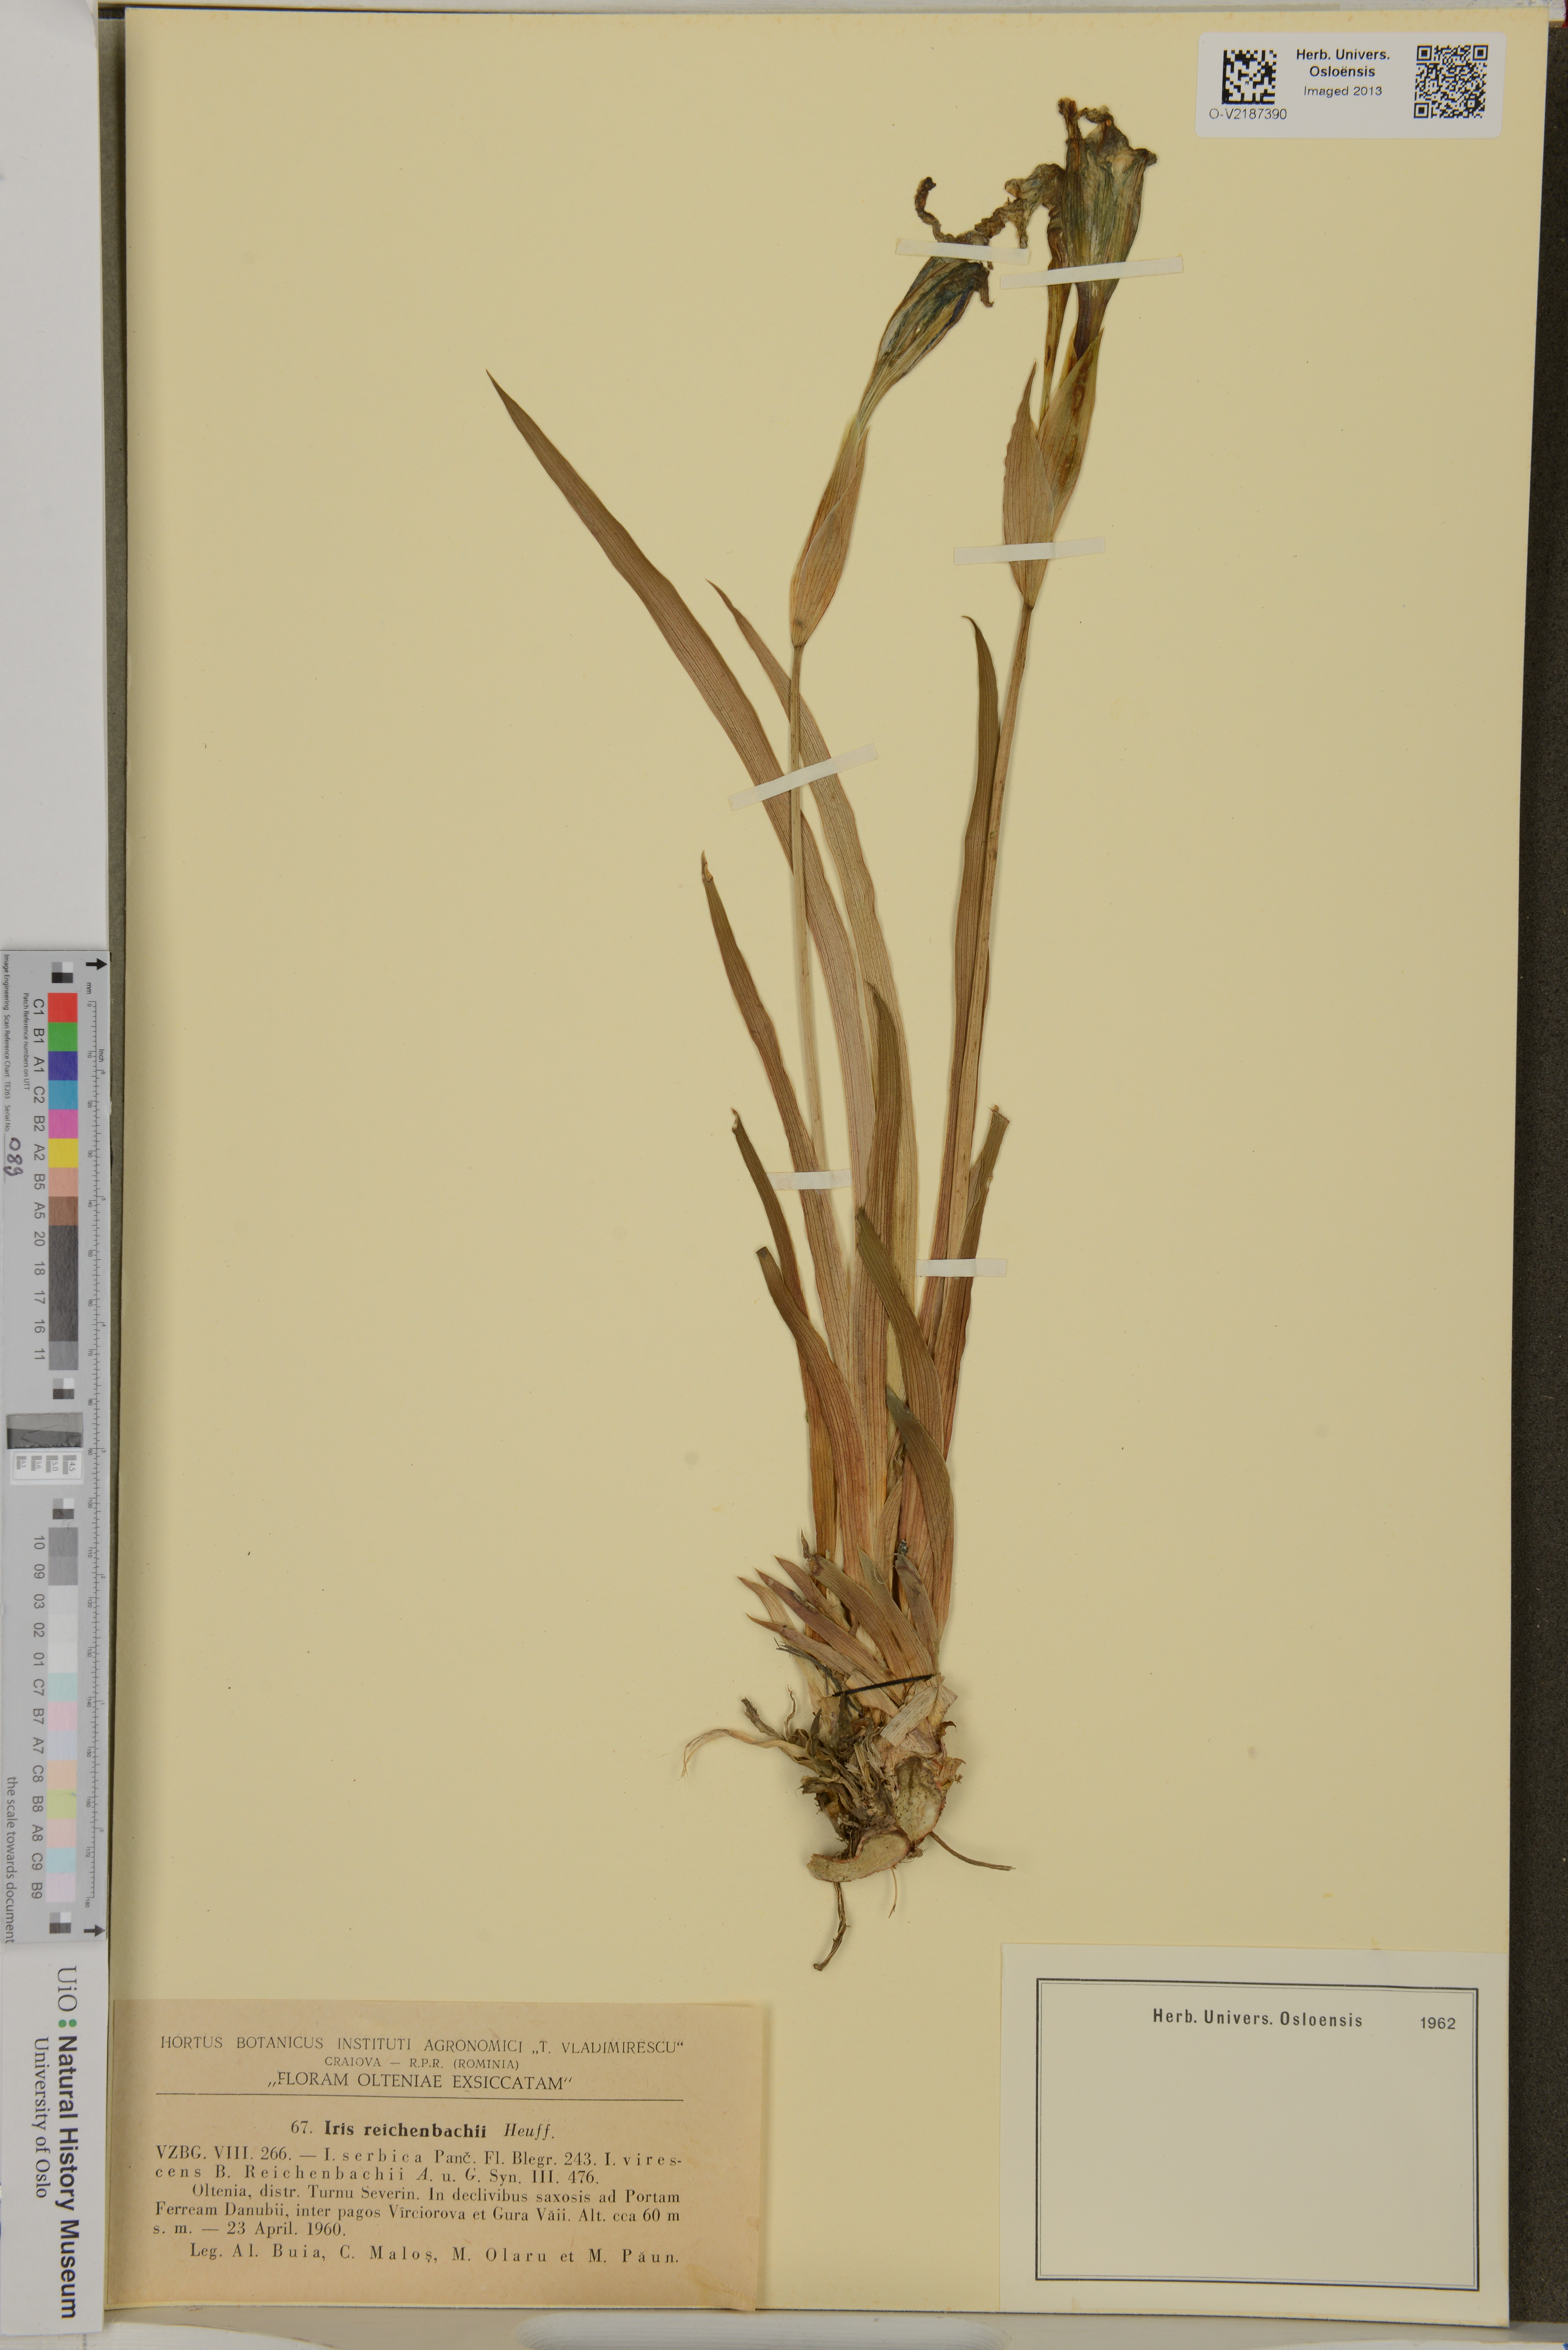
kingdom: Plantae
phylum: Tracheophyta
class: Liliopsida
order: Asparagales
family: Iridaceae
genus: Iris
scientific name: Iris reichenbachii
